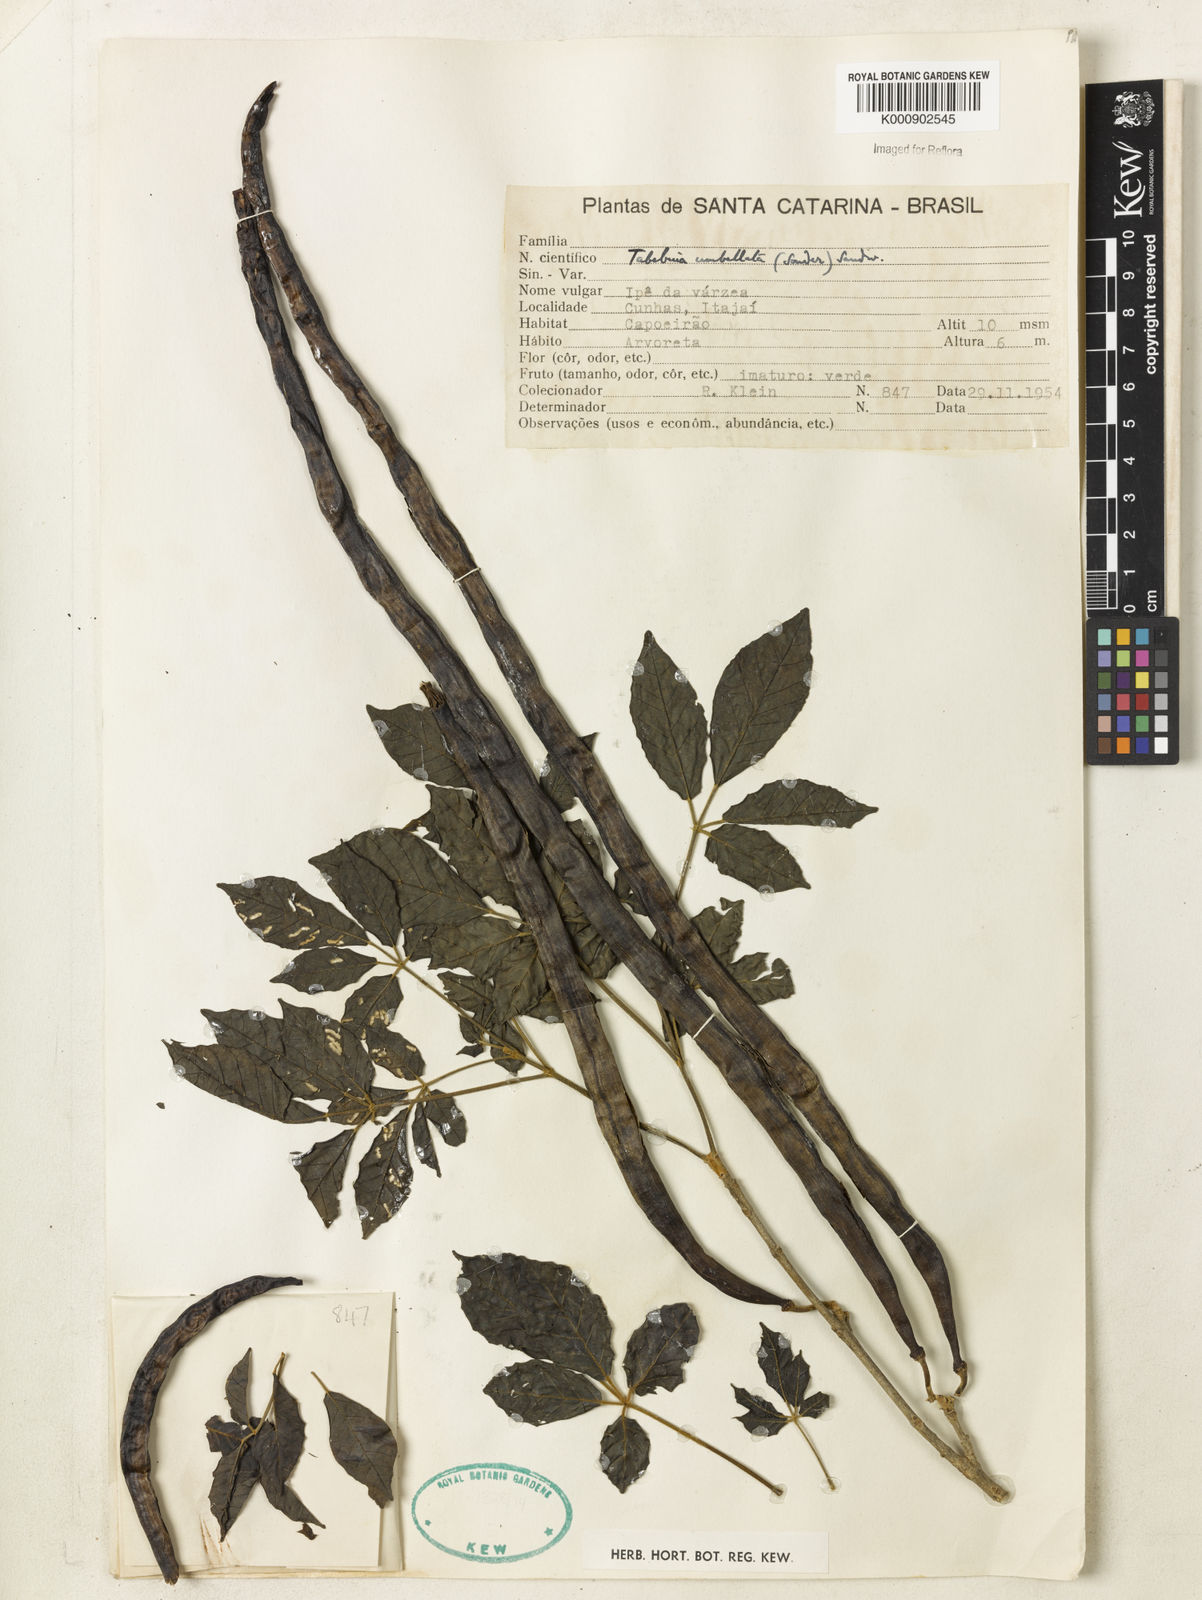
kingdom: Plantae
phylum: Tracheophyta
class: Magnoliopsida
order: Lamiales
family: Bignoniaceae
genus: Handroanthus
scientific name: Handroanthus umbellatus
